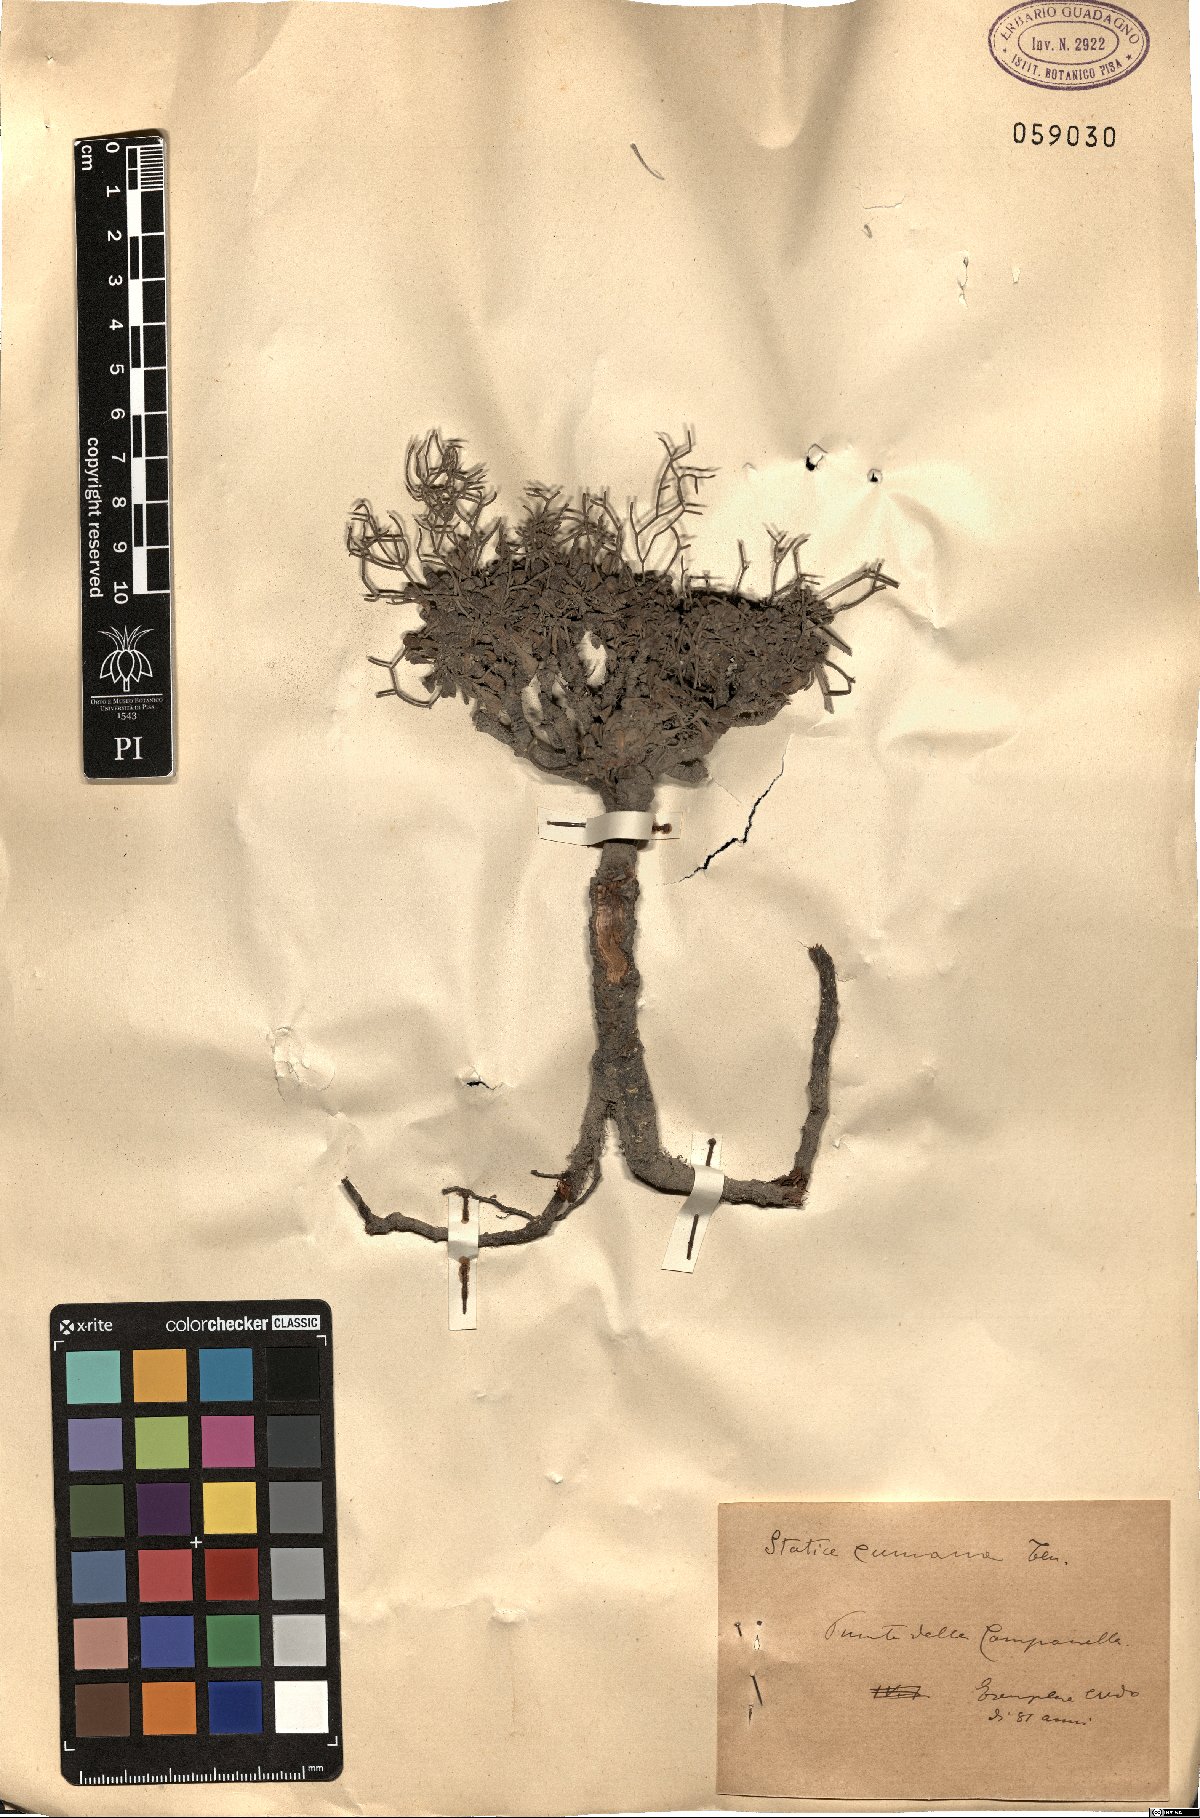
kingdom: Plantae
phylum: Tracheophyta
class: Magnoliopsida
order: Caryophyllales
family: Plumbaginaceae
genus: Limonium
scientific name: Limonium cumanum
